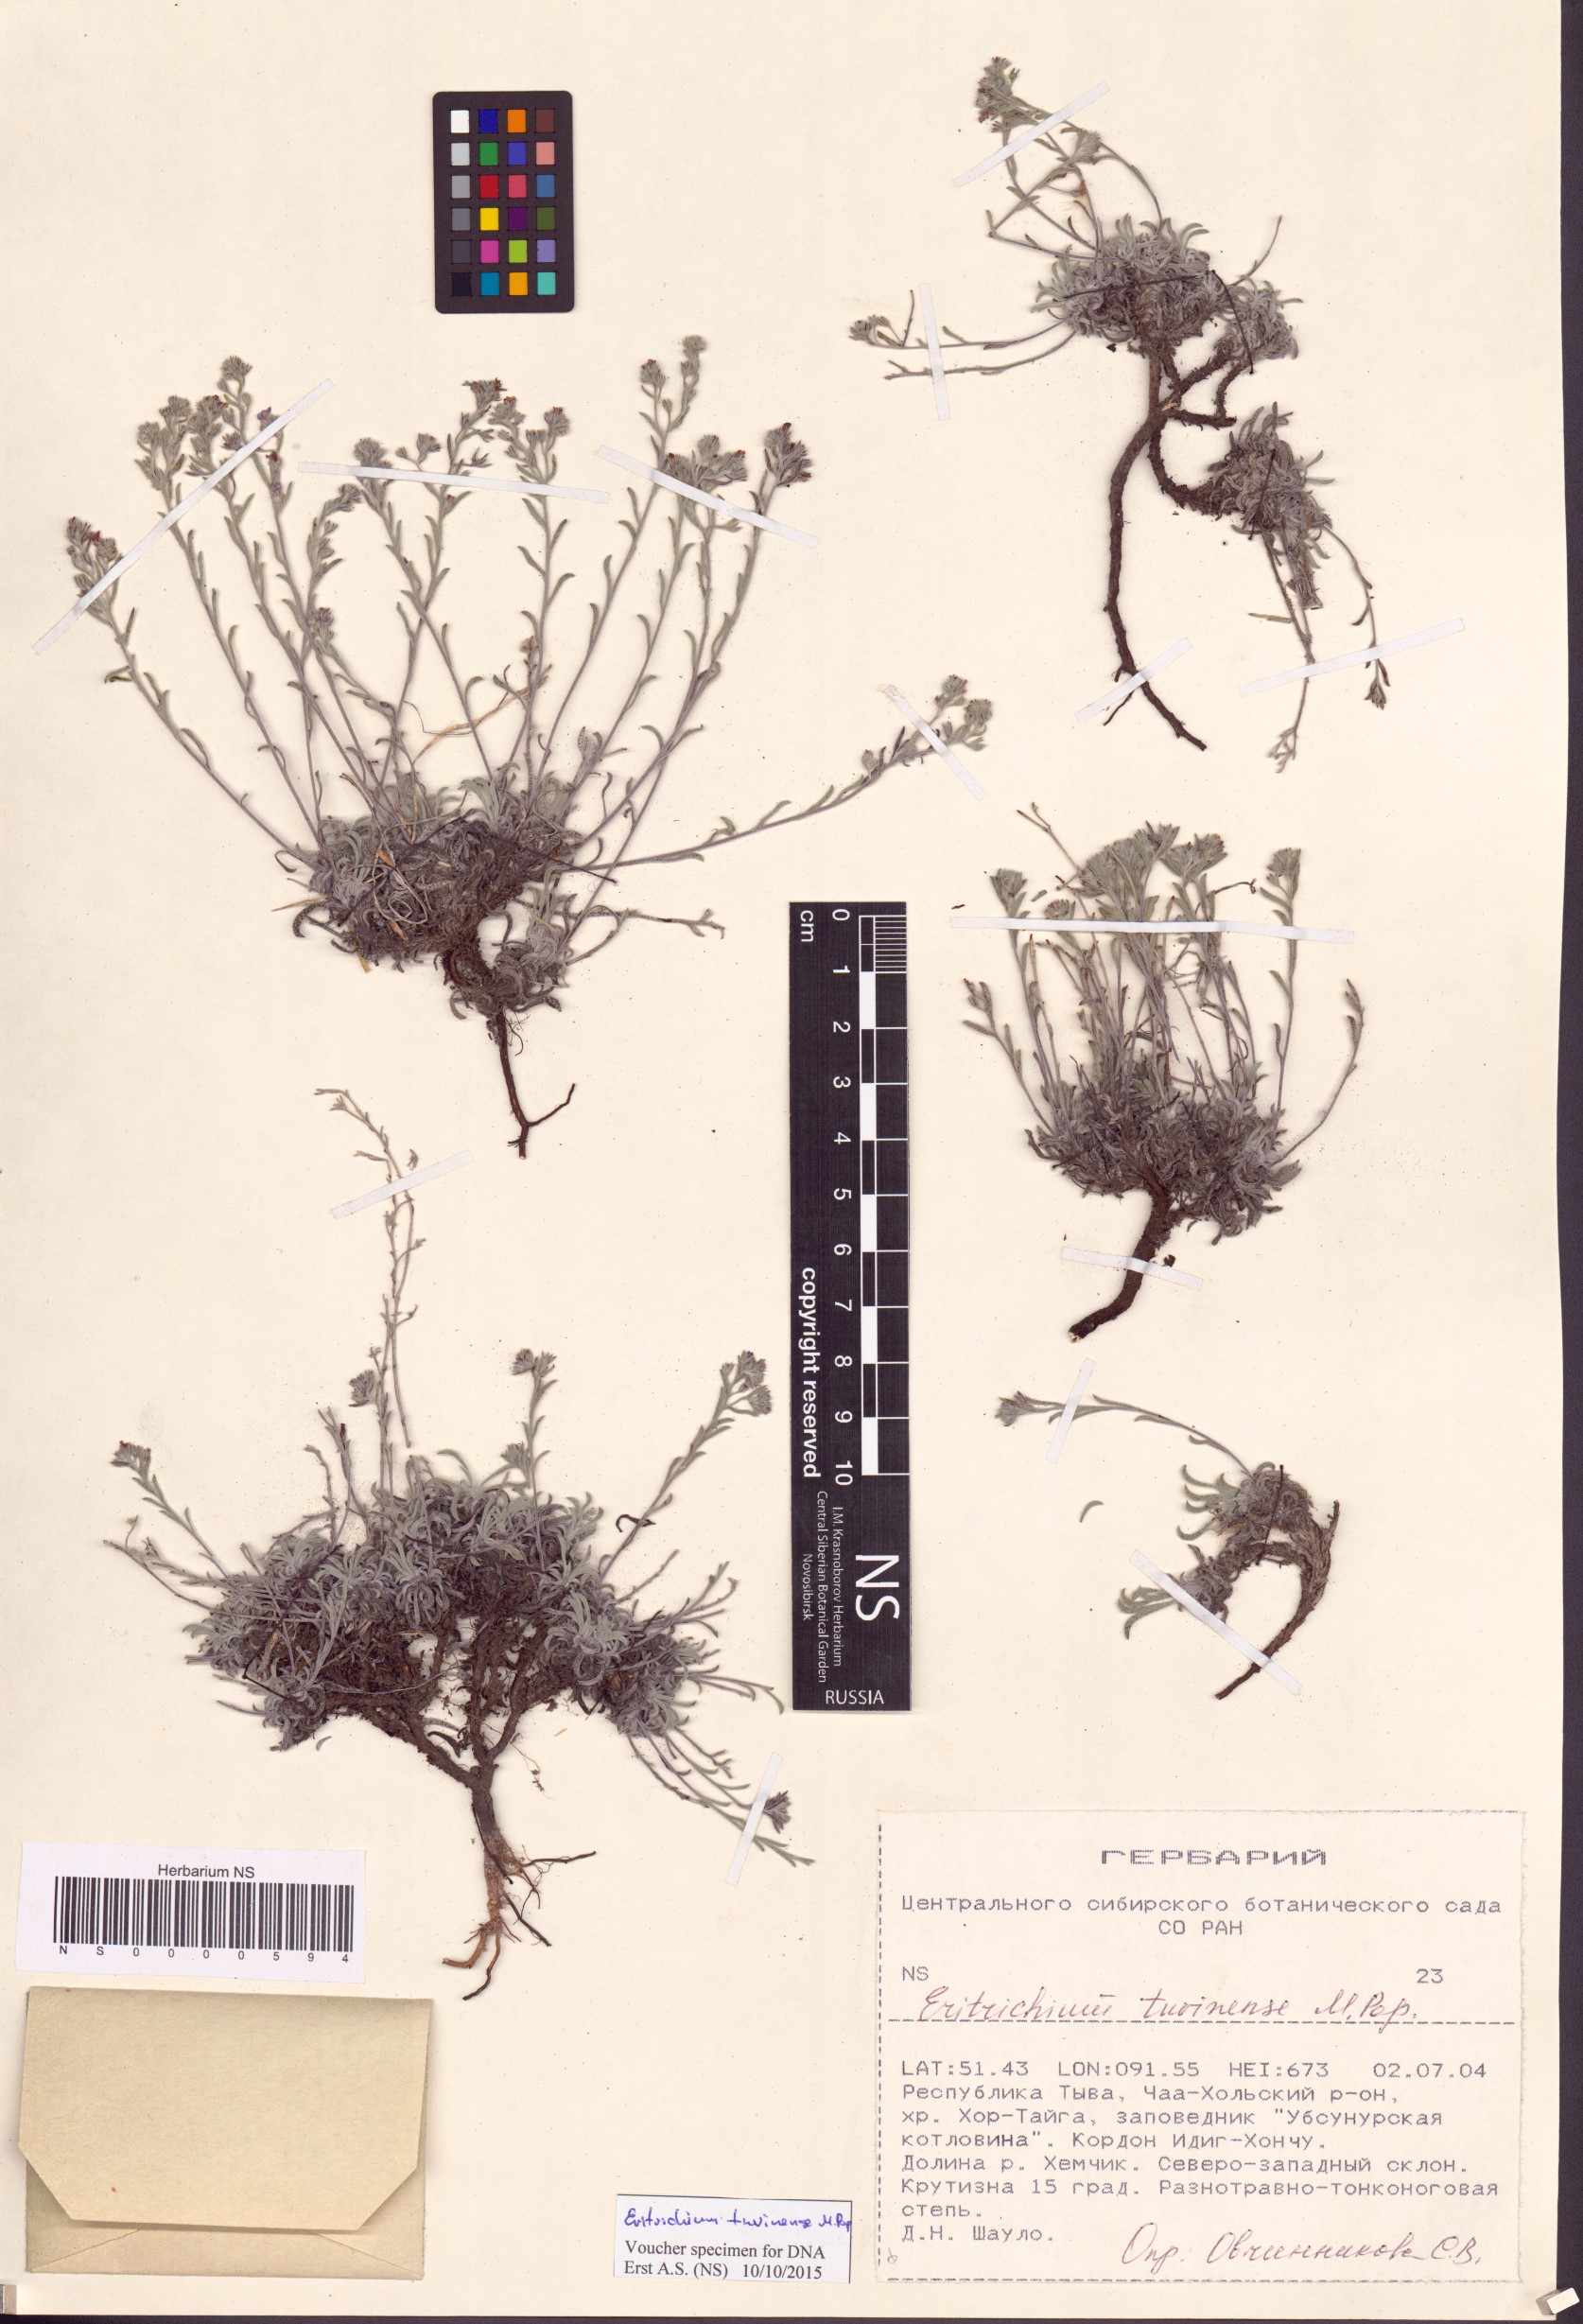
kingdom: Plantae
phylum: Tracheophyta
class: Magnoliopsida
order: Boraginales
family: Boraginaceae
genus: Eritrichium
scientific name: Eritrichium tuvinense
